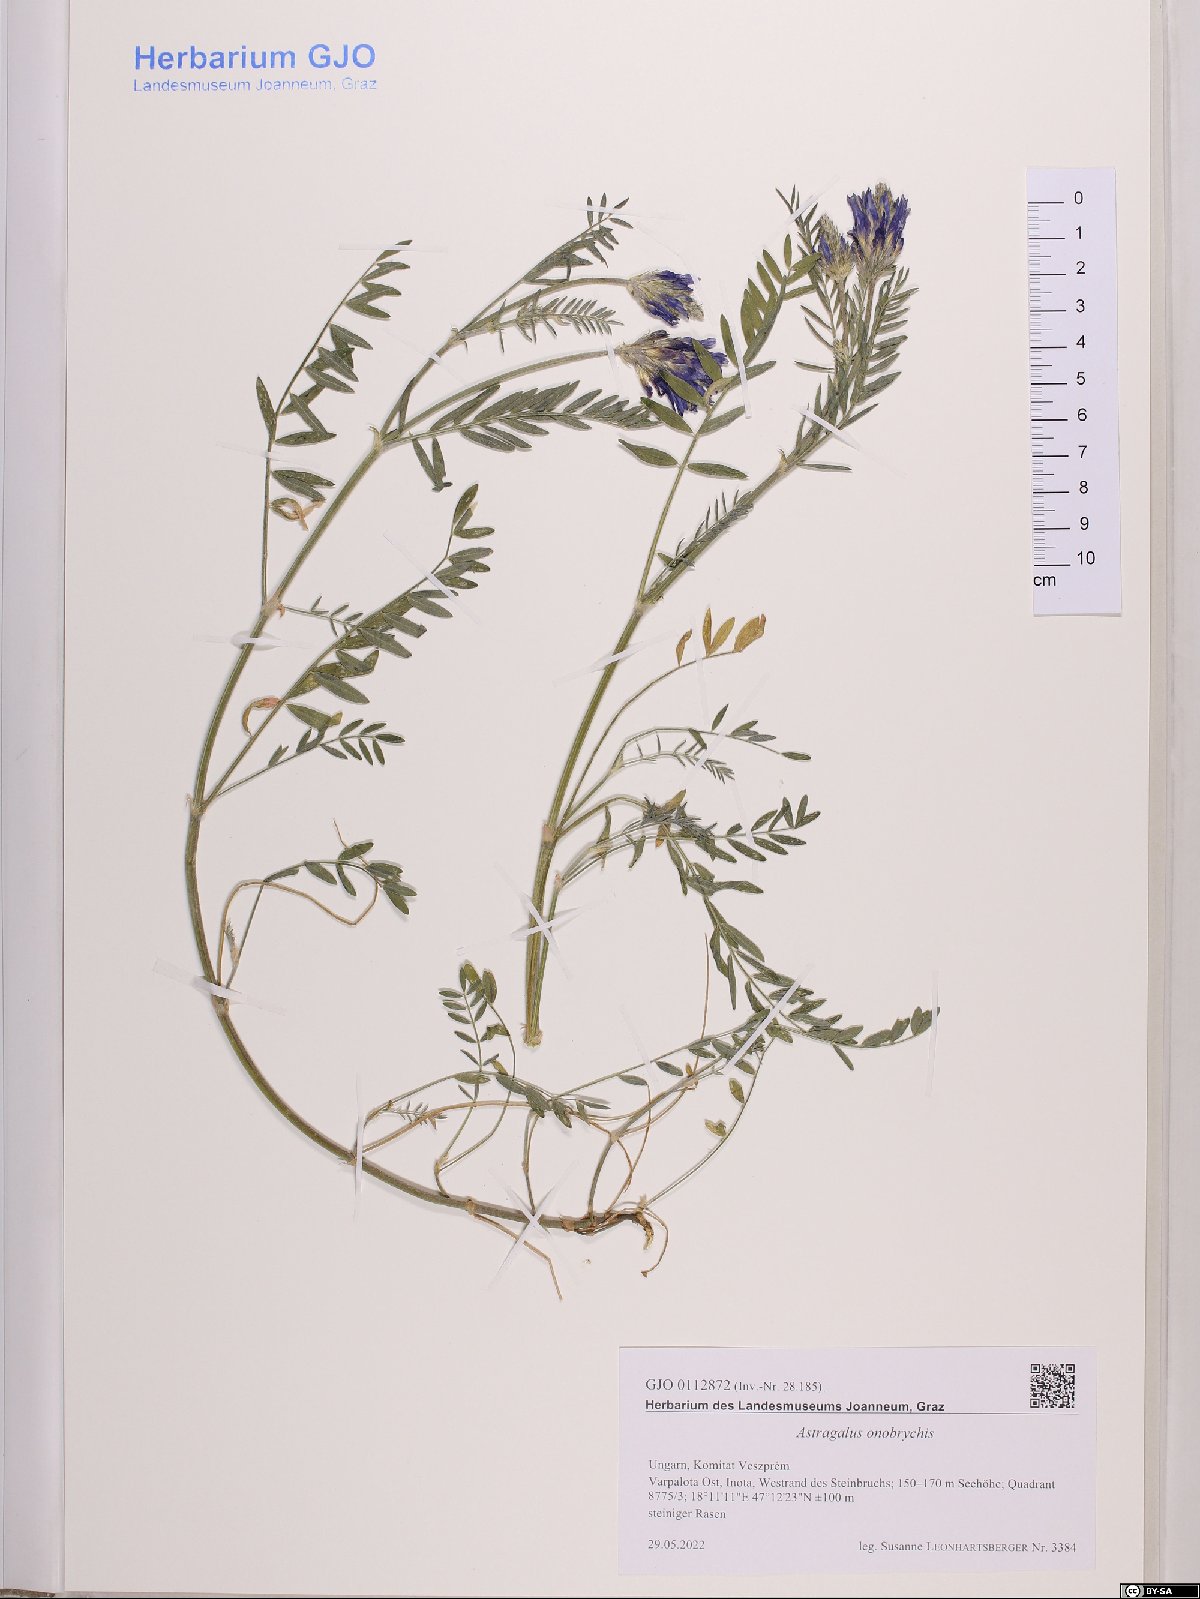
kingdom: Plantae
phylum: Tracheophyta
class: Magnoliopsida
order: Fabales
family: Fabaceae
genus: Astragalus
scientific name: Astragalus onobrychis
